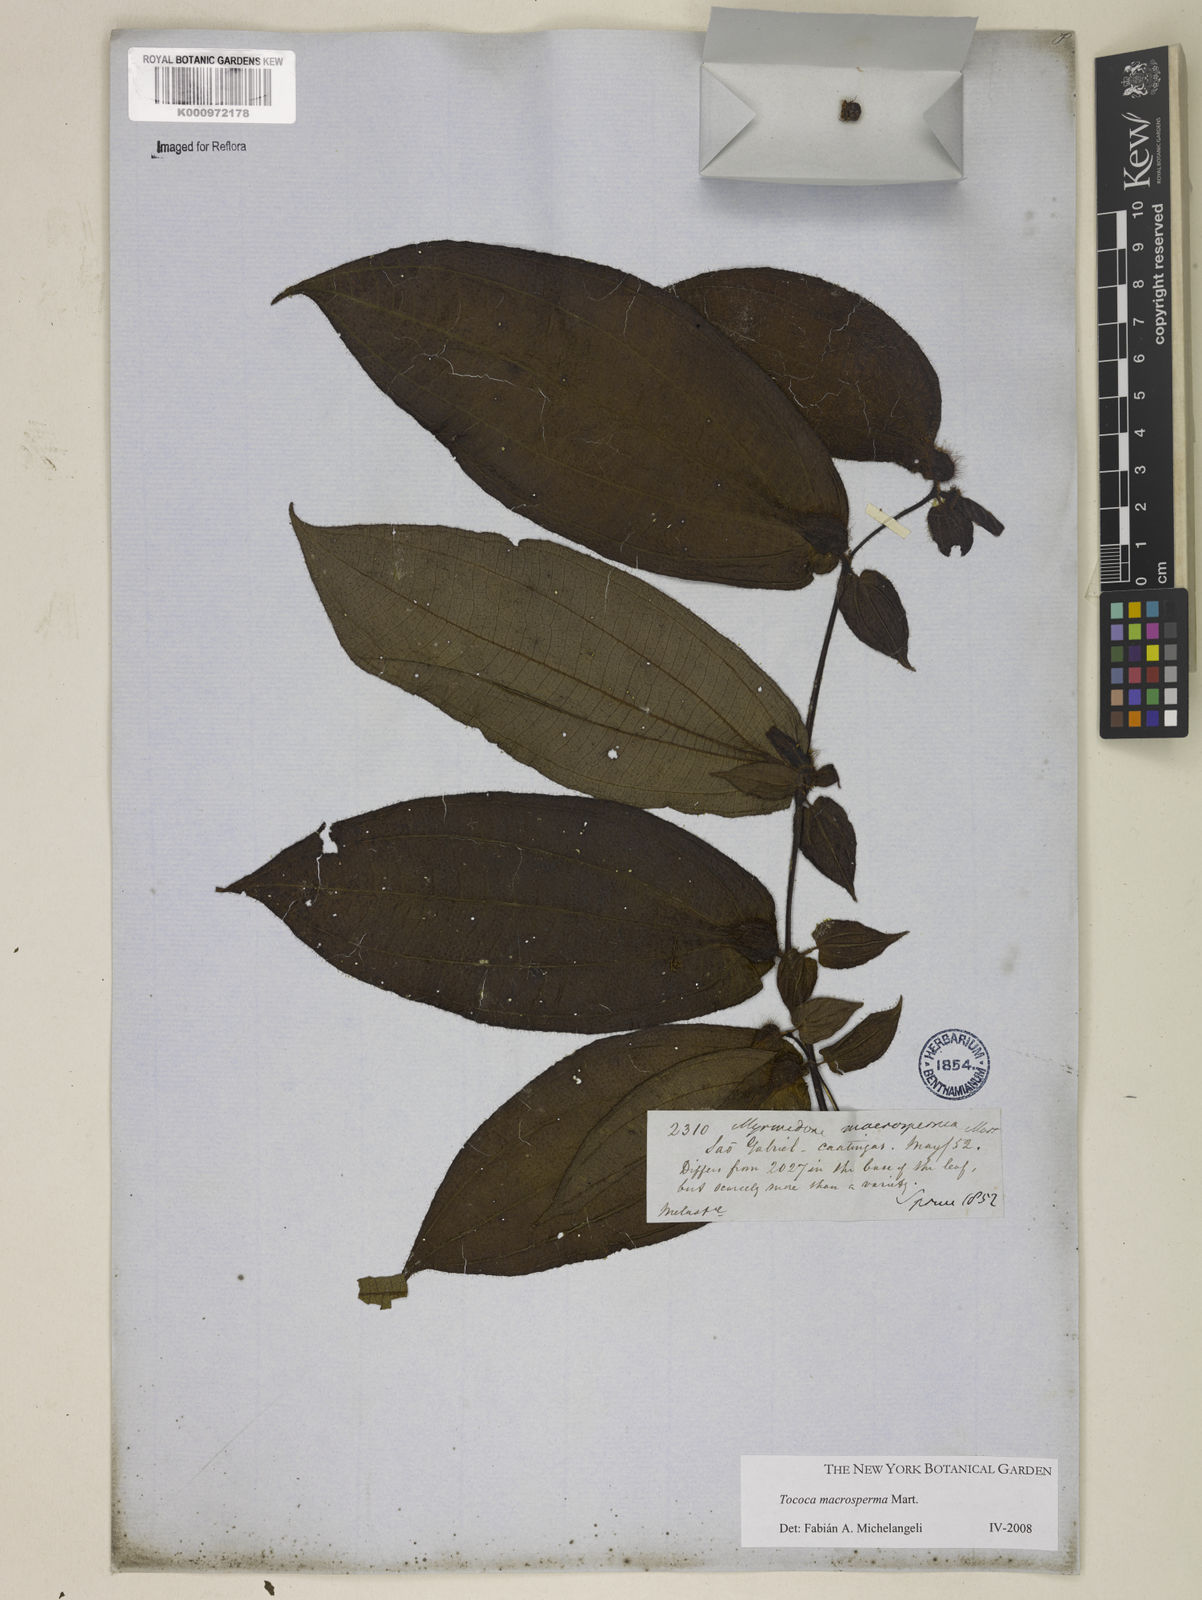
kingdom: Plantae
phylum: Tracheophyta
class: Magnoliopsida
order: Myrtales
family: Melastomataceae
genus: Miconia
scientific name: Miconia macrosperma
